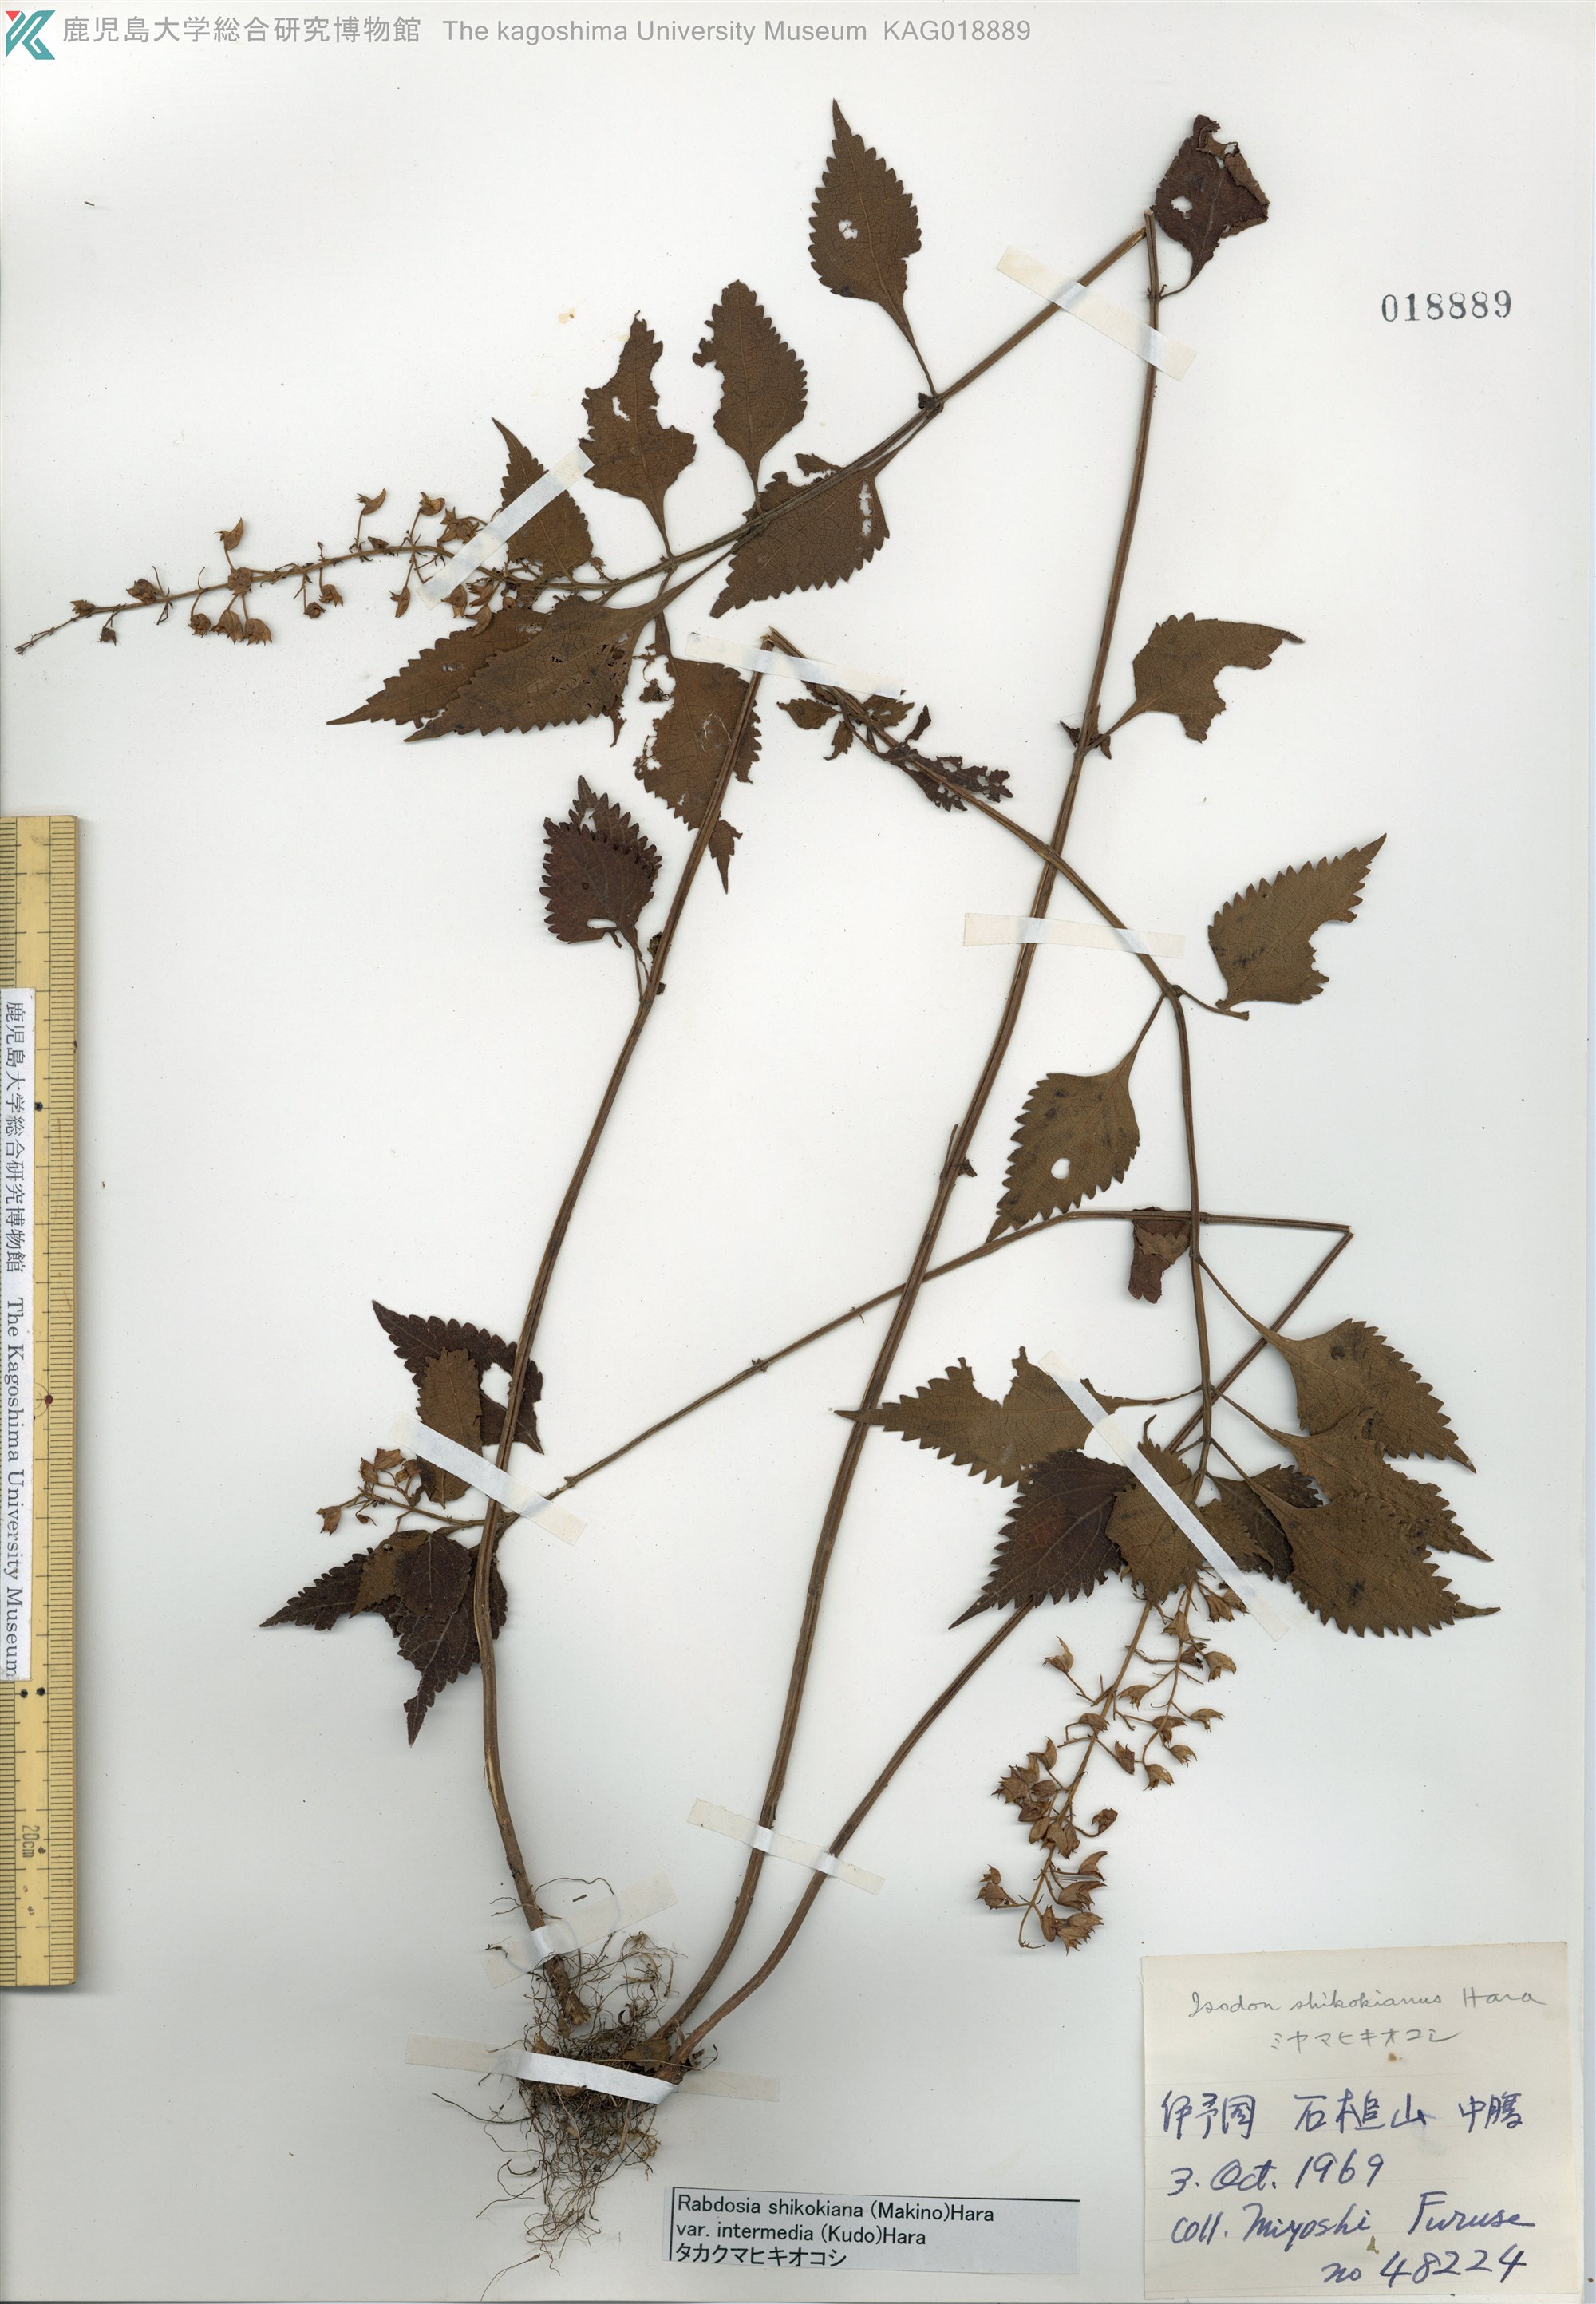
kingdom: Plantae
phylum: Tracheophyta
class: Magnoliopsida
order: Lamiales
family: Lamiaceae
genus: Isodon
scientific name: Isodon shikokianus
